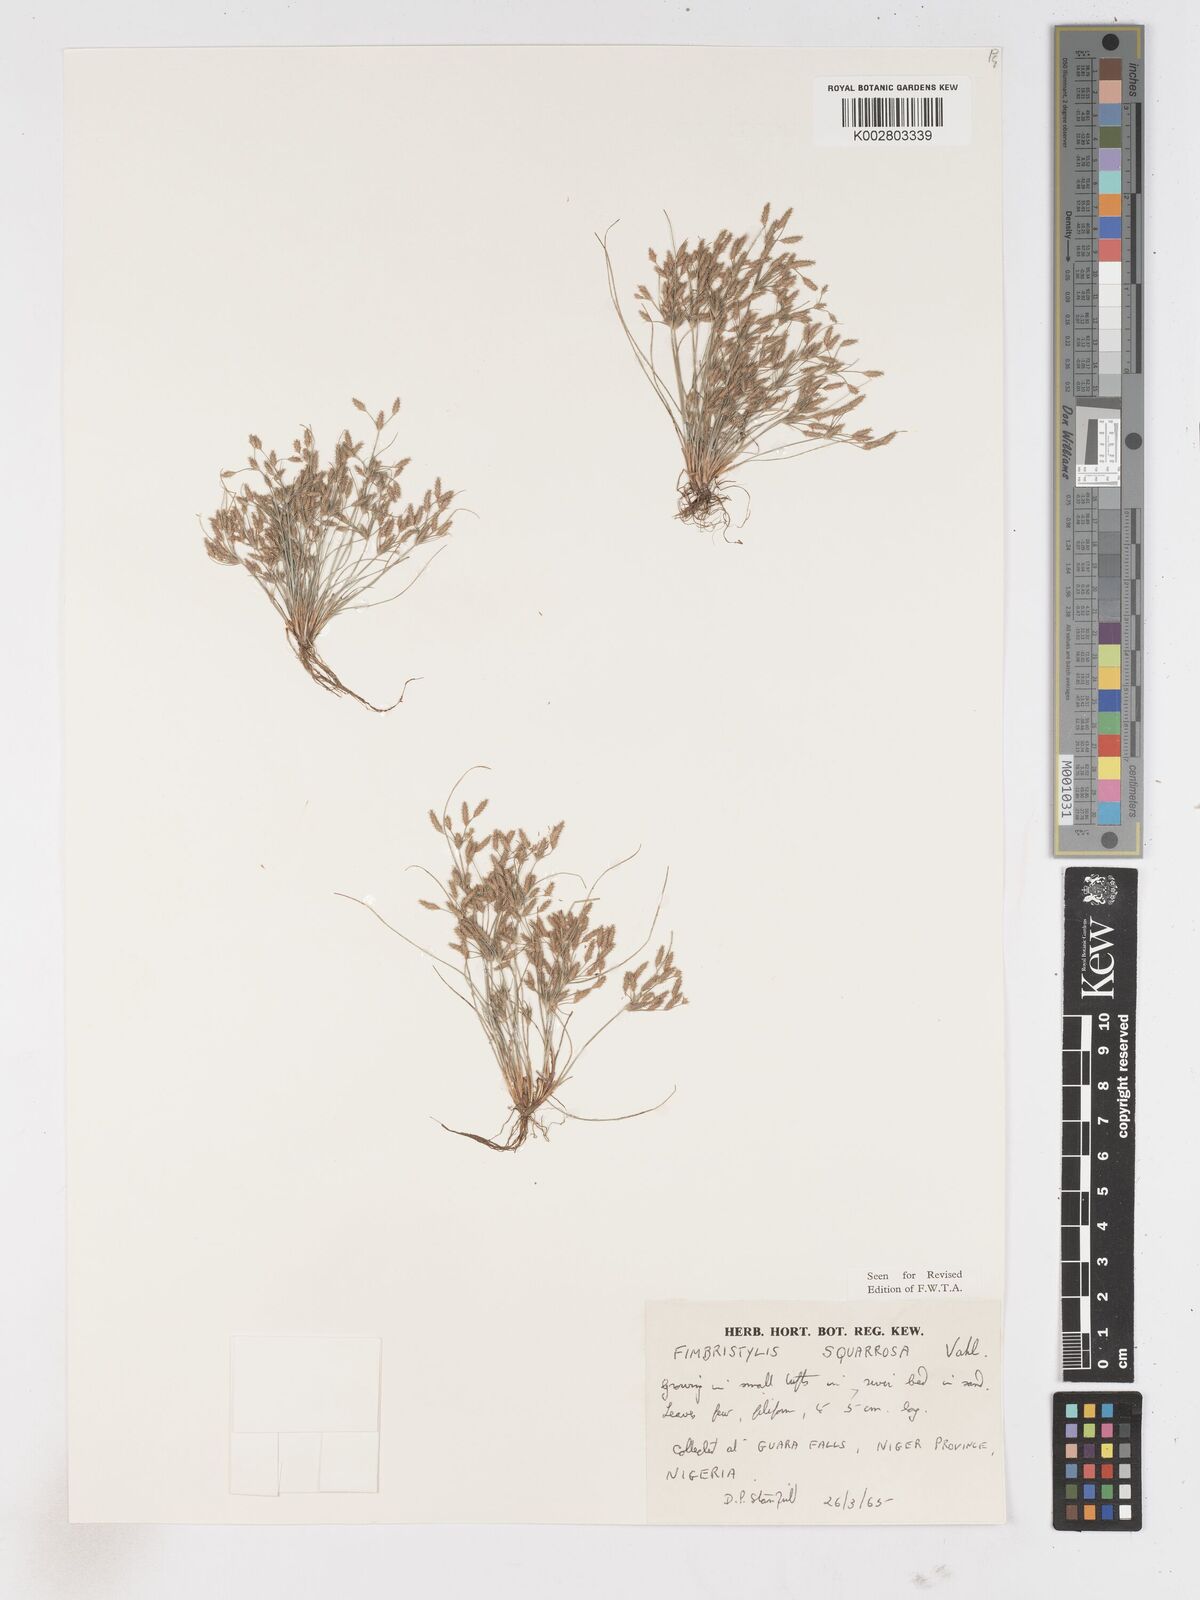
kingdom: Plantae
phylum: Tracheophyta
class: Liliopsida
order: Poales
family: Cyperaceae
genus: Fimbristylis
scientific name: Fimbristylis squarrosa
